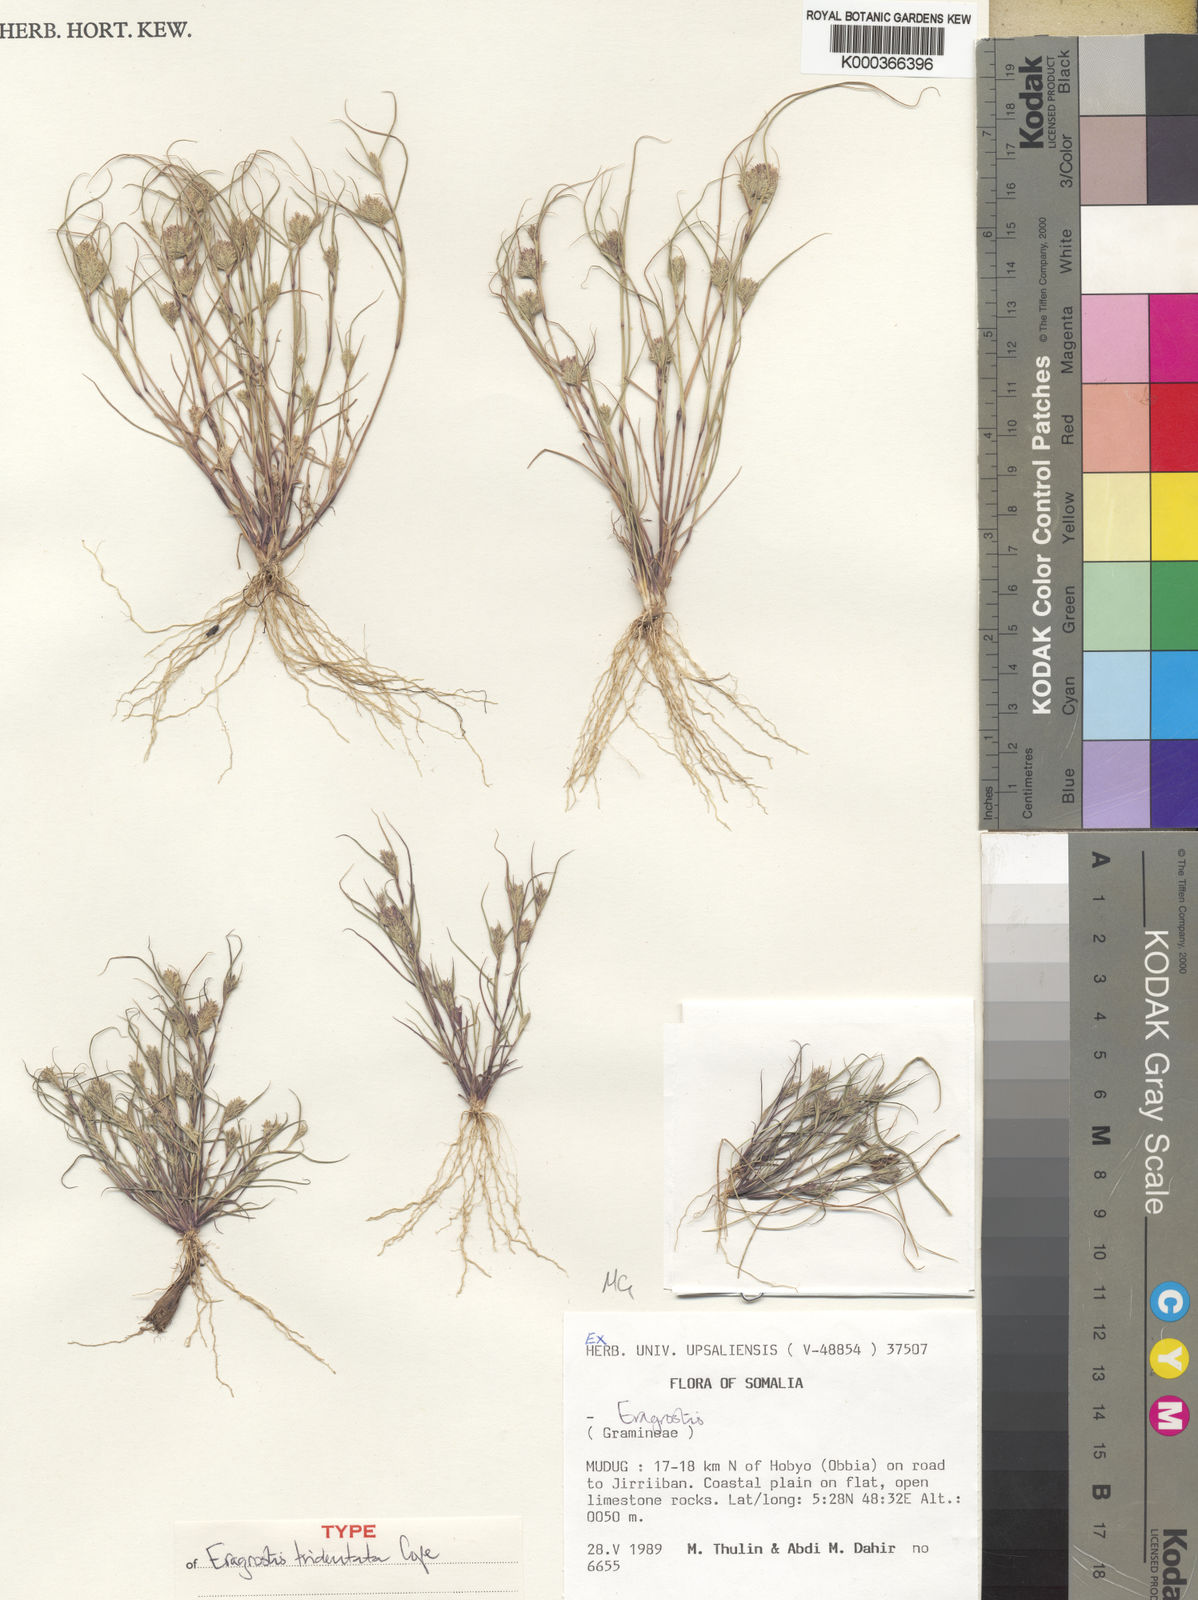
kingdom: Plantae
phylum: Tracheophyta
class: Liliopsida
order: Poales
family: Poaceae
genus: Eragrostis
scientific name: Eragrostis tridentata
